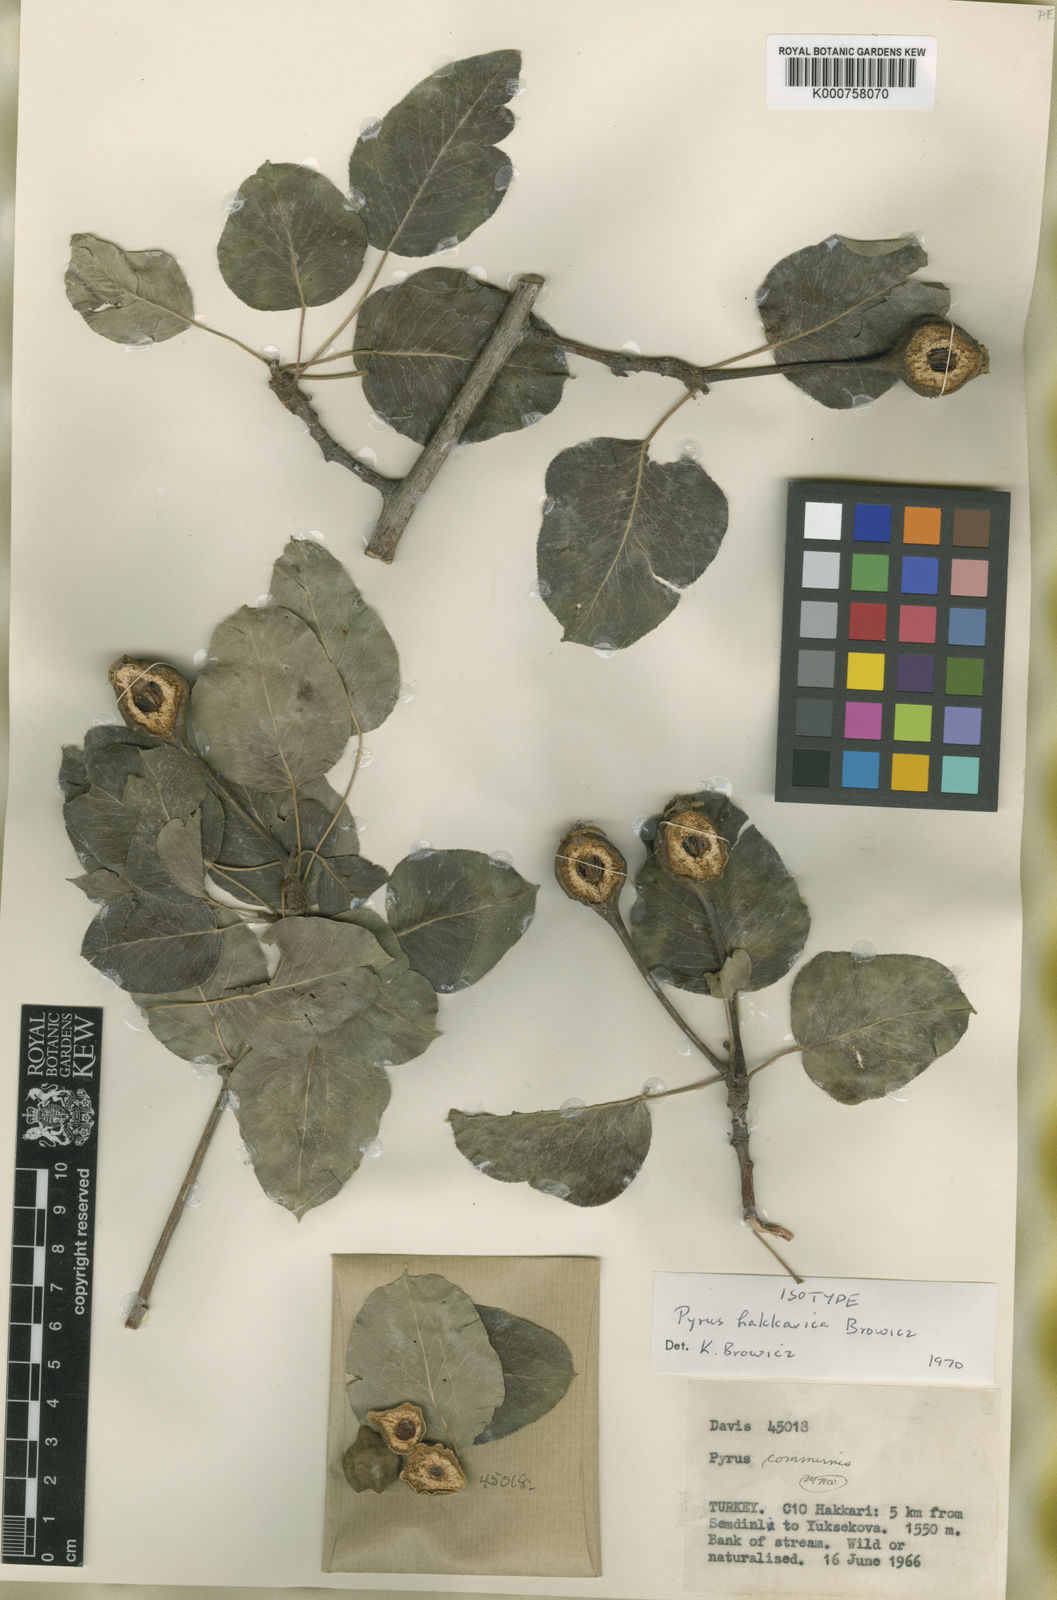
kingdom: Plantae
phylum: Tracheophyta
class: Magnoliopsida
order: Rosales
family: Rosaceae
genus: Pyrus
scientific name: Pyrus
